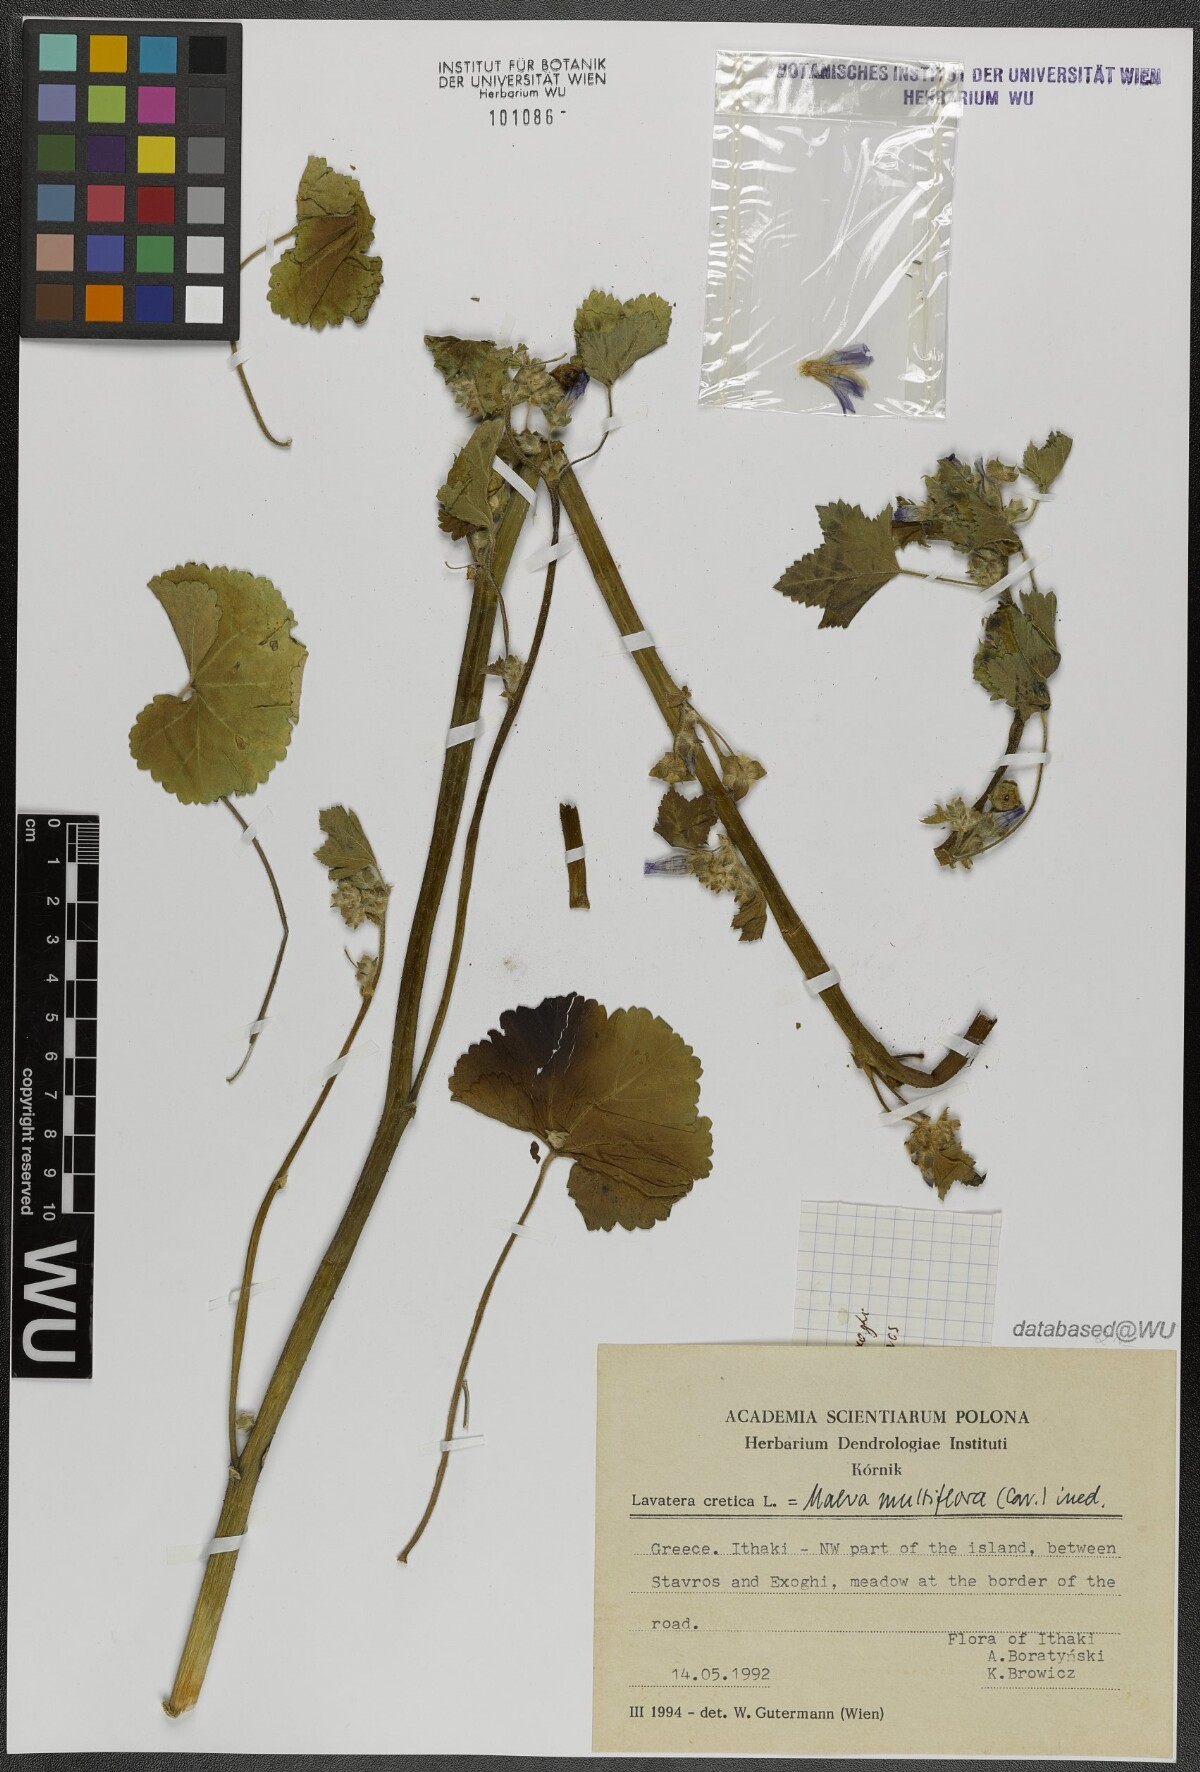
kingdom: Plantae
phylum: Tracheophyta
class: Magnoliopsida
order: Malvales
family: Malvaceae
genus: Malva
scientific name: Malva multiflora
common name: Cheeseweed
